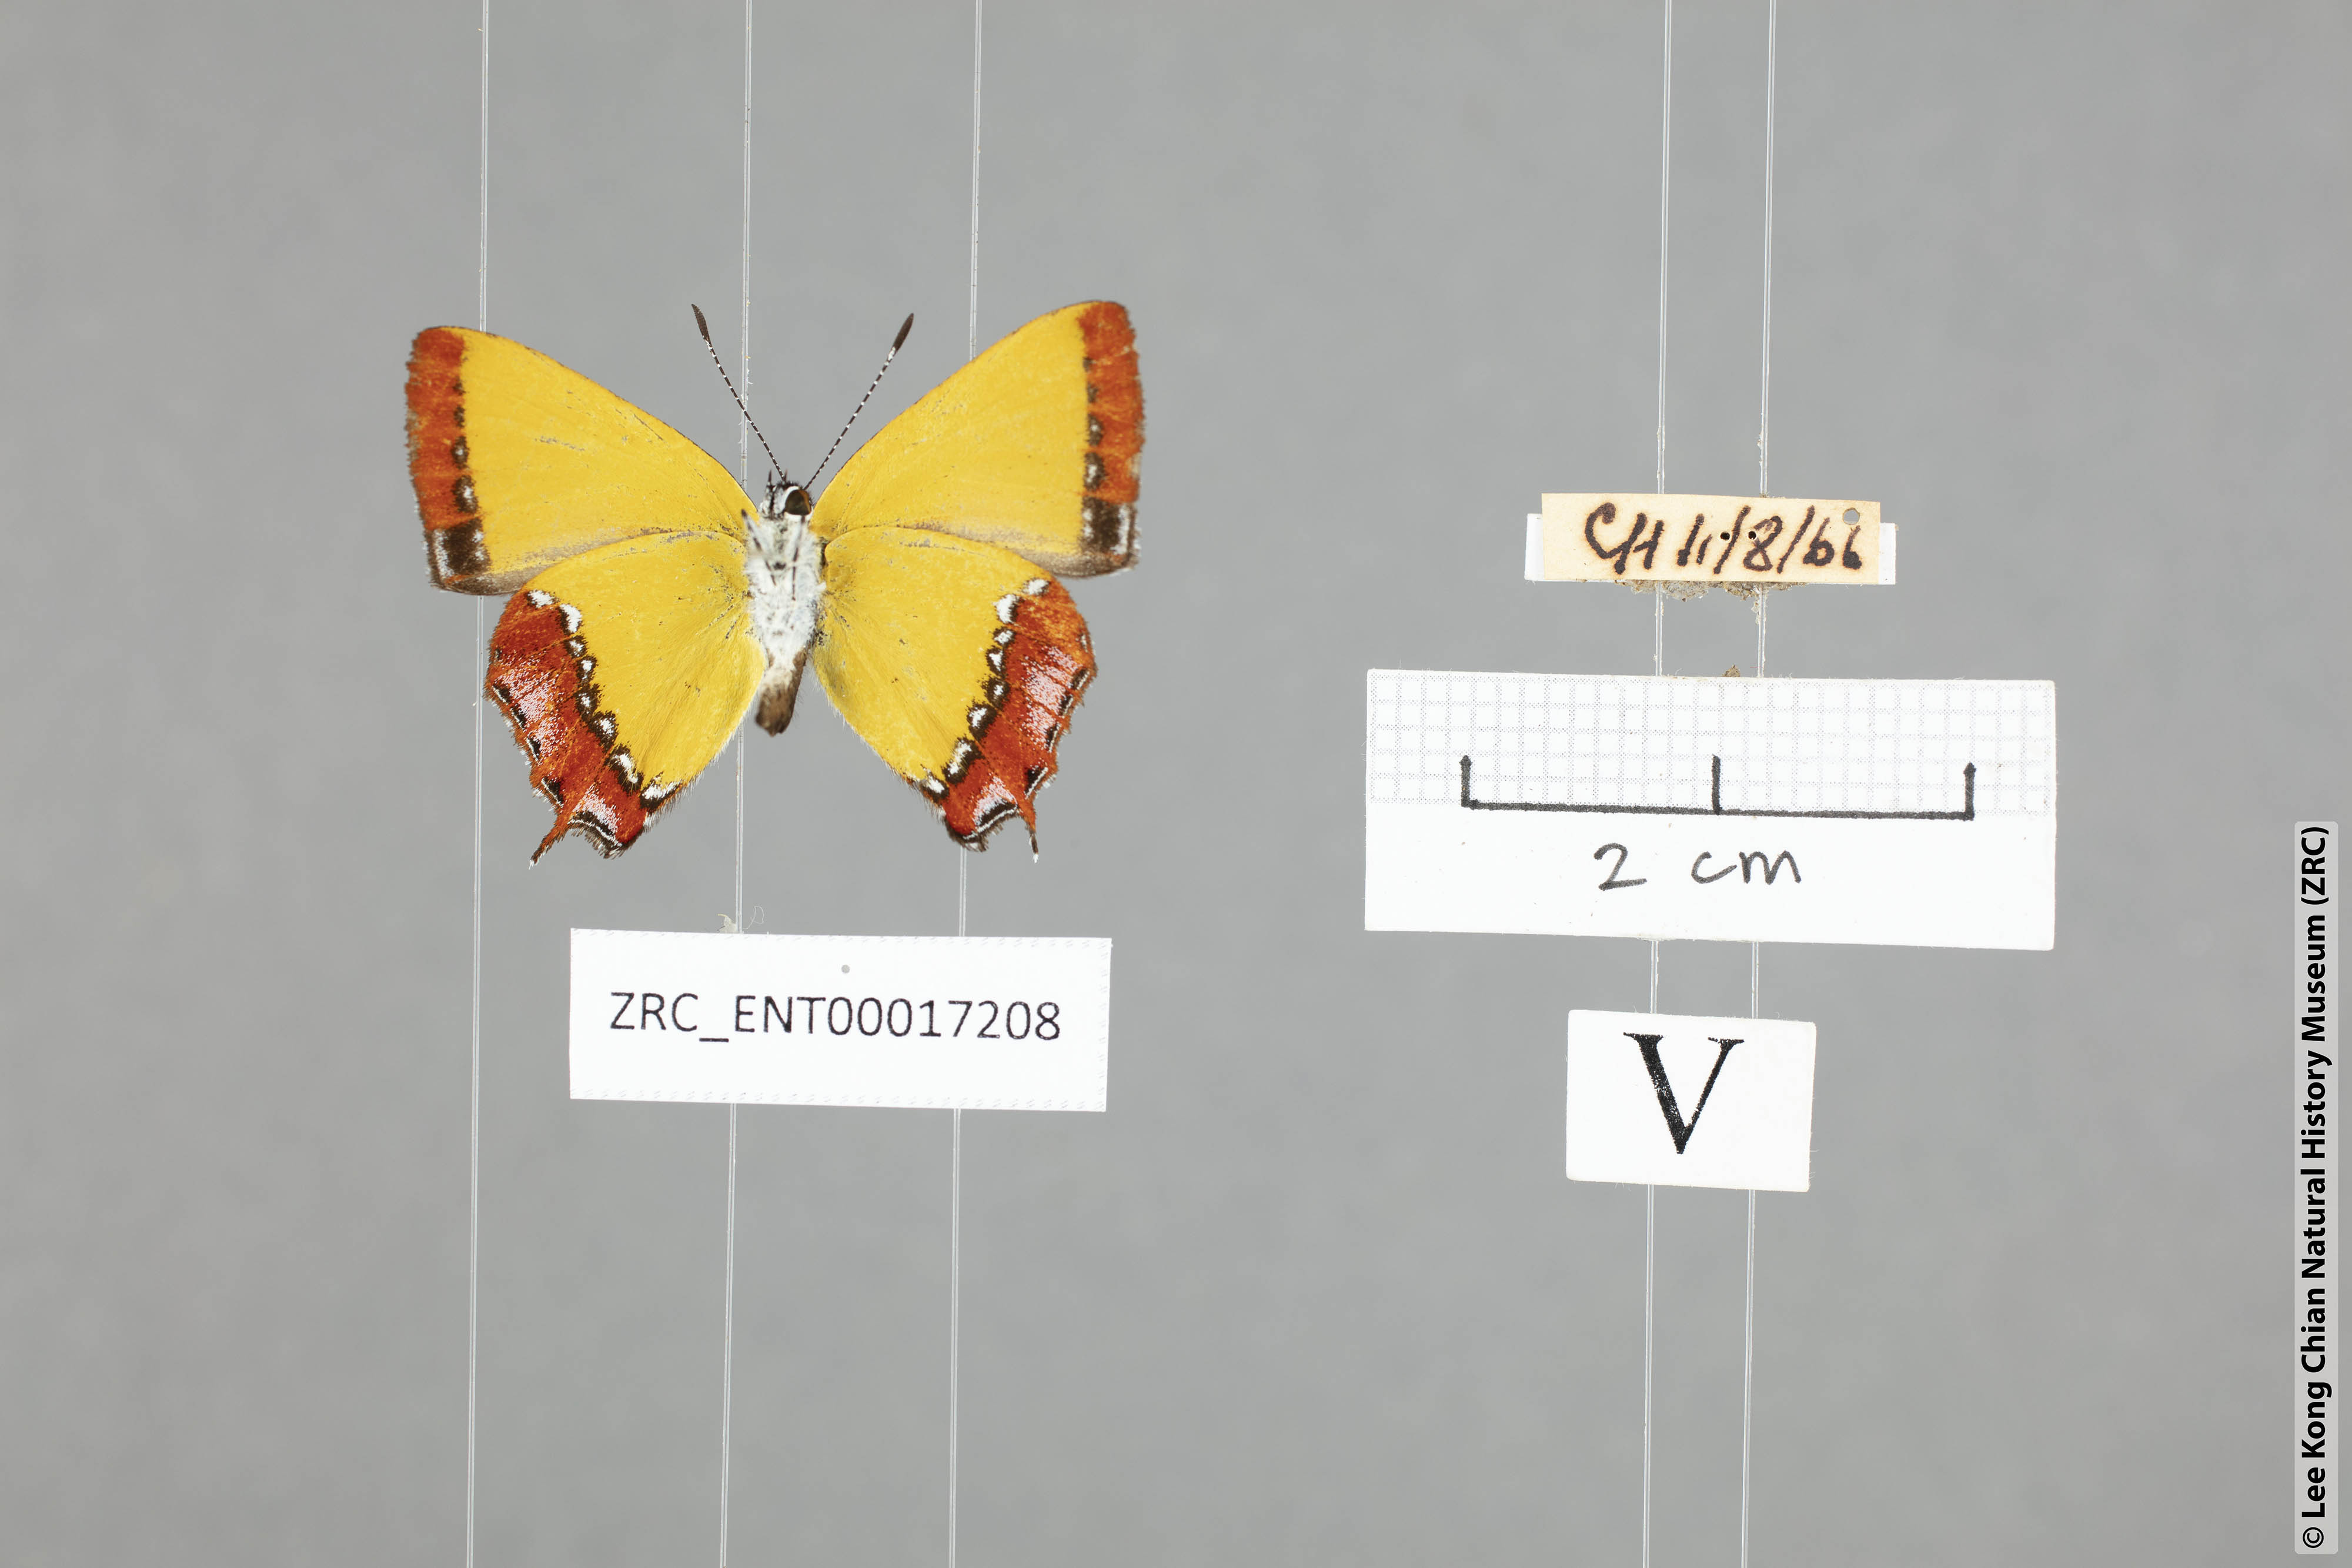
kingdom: Animalia
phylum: Arthropoda
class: Insecta
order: Lepidoptera
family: Lycaenidae
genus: Heliophorus
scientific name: Heliophorus ila
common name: Restricted purple sapphire
